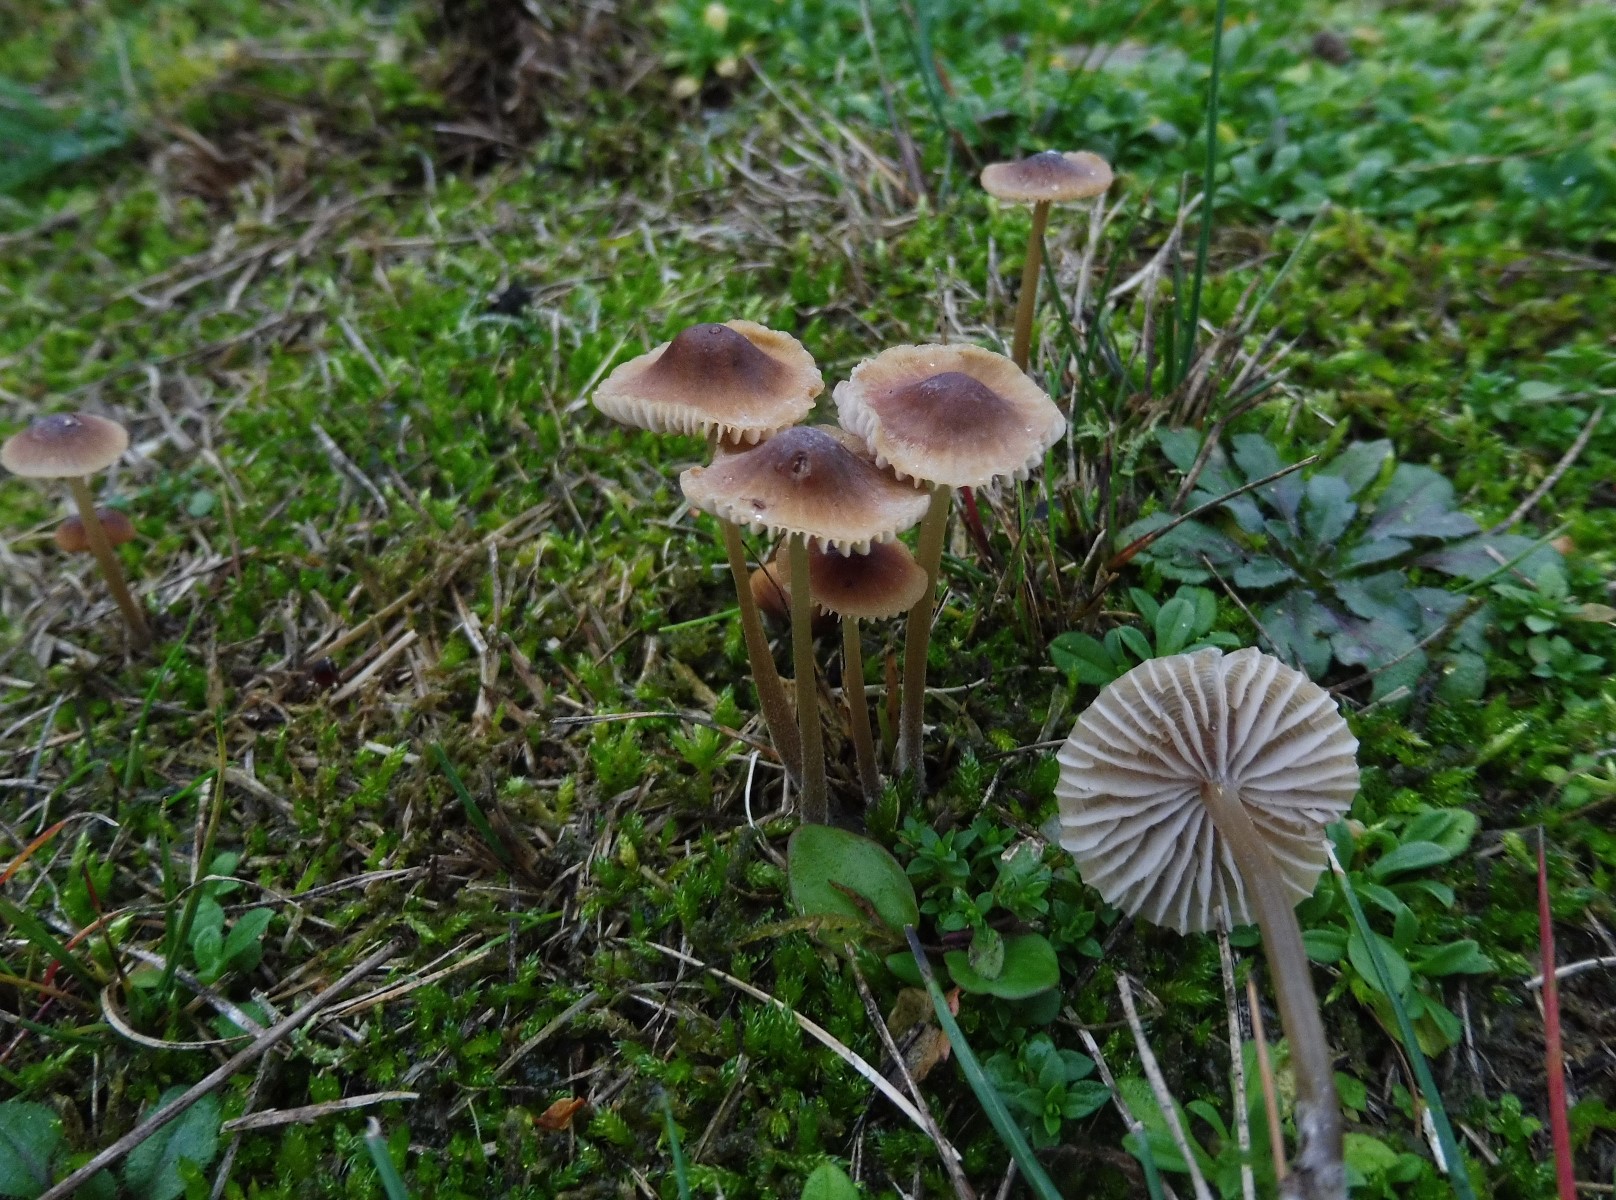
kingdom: Fungi
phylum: Basidiomycota
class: Agaricomycetes
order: Agaricales
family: Mycenaceae
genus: Mycena
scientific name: Mycena
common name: huesvamp
